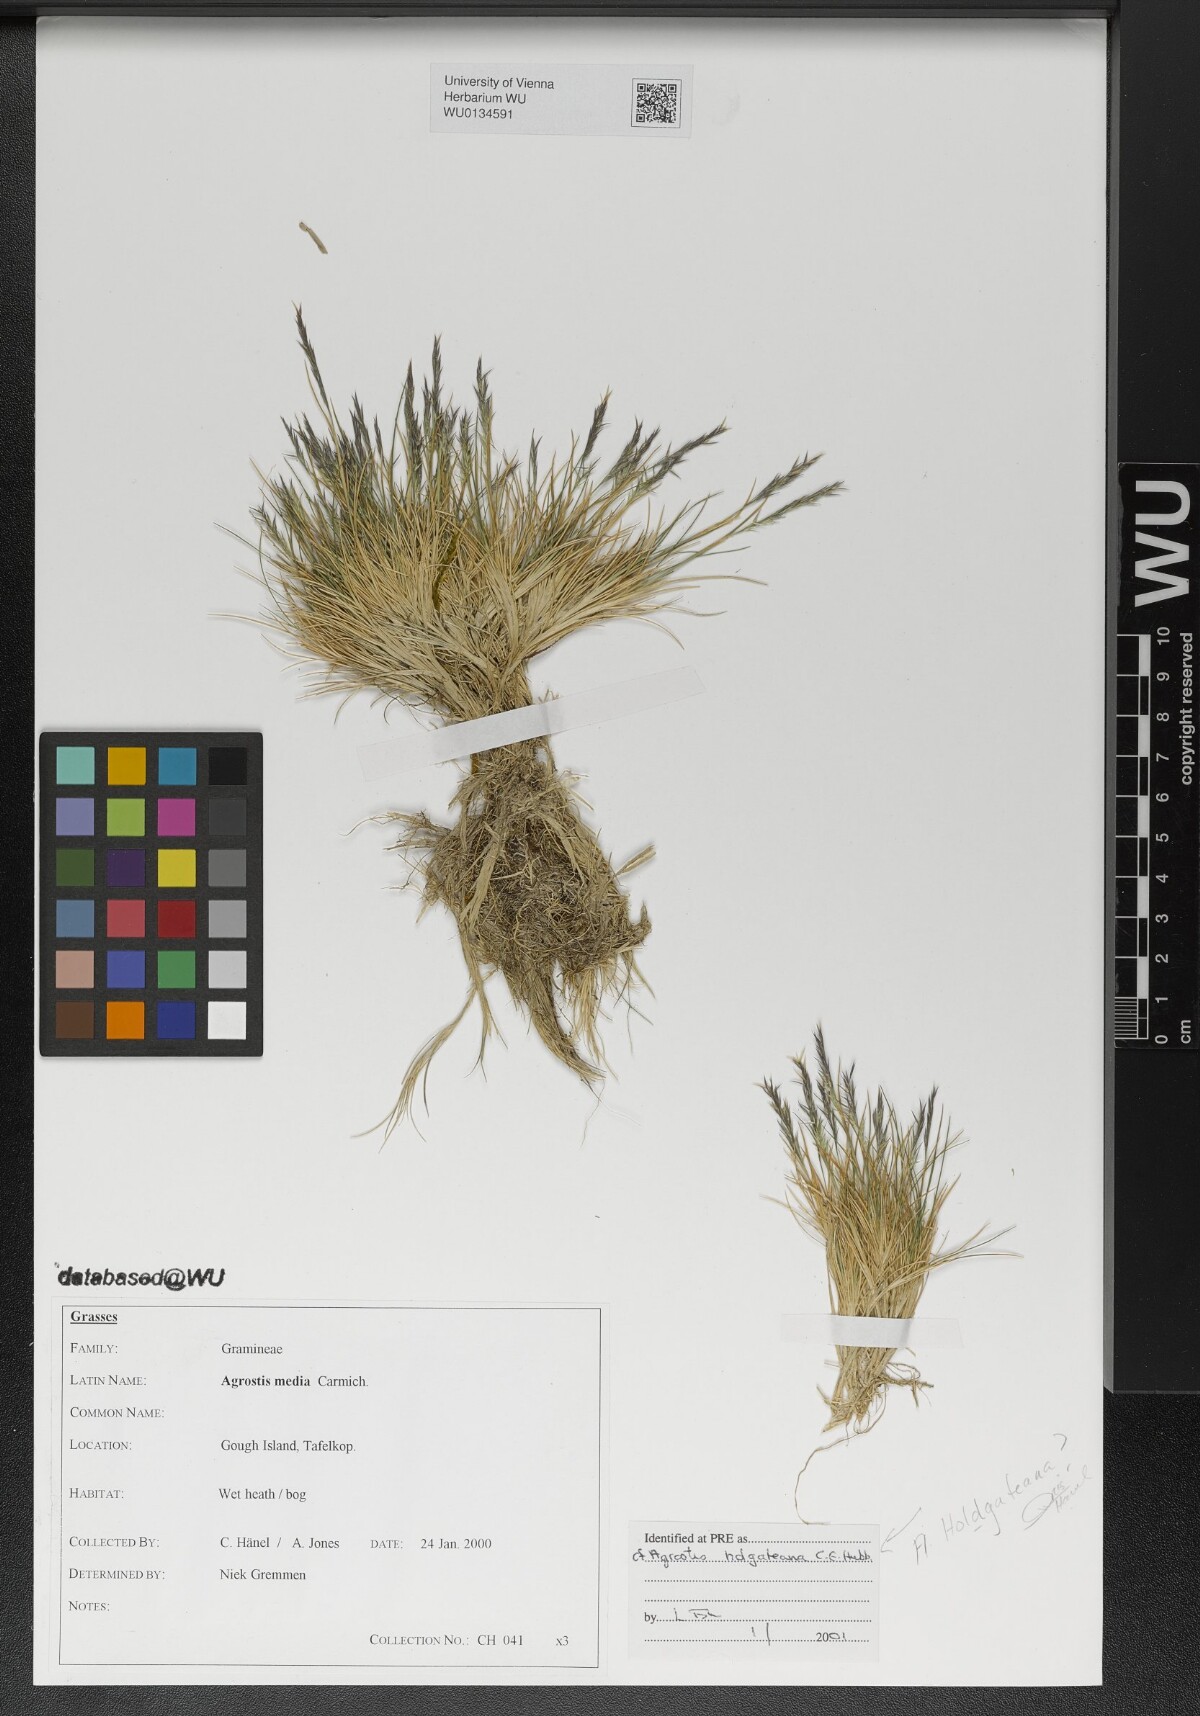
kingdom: Plantae
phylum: Tracheophyta
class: Liliopsida
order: Poales
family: Poaceae
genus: Agrostis
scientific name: Agrostis holgateana
